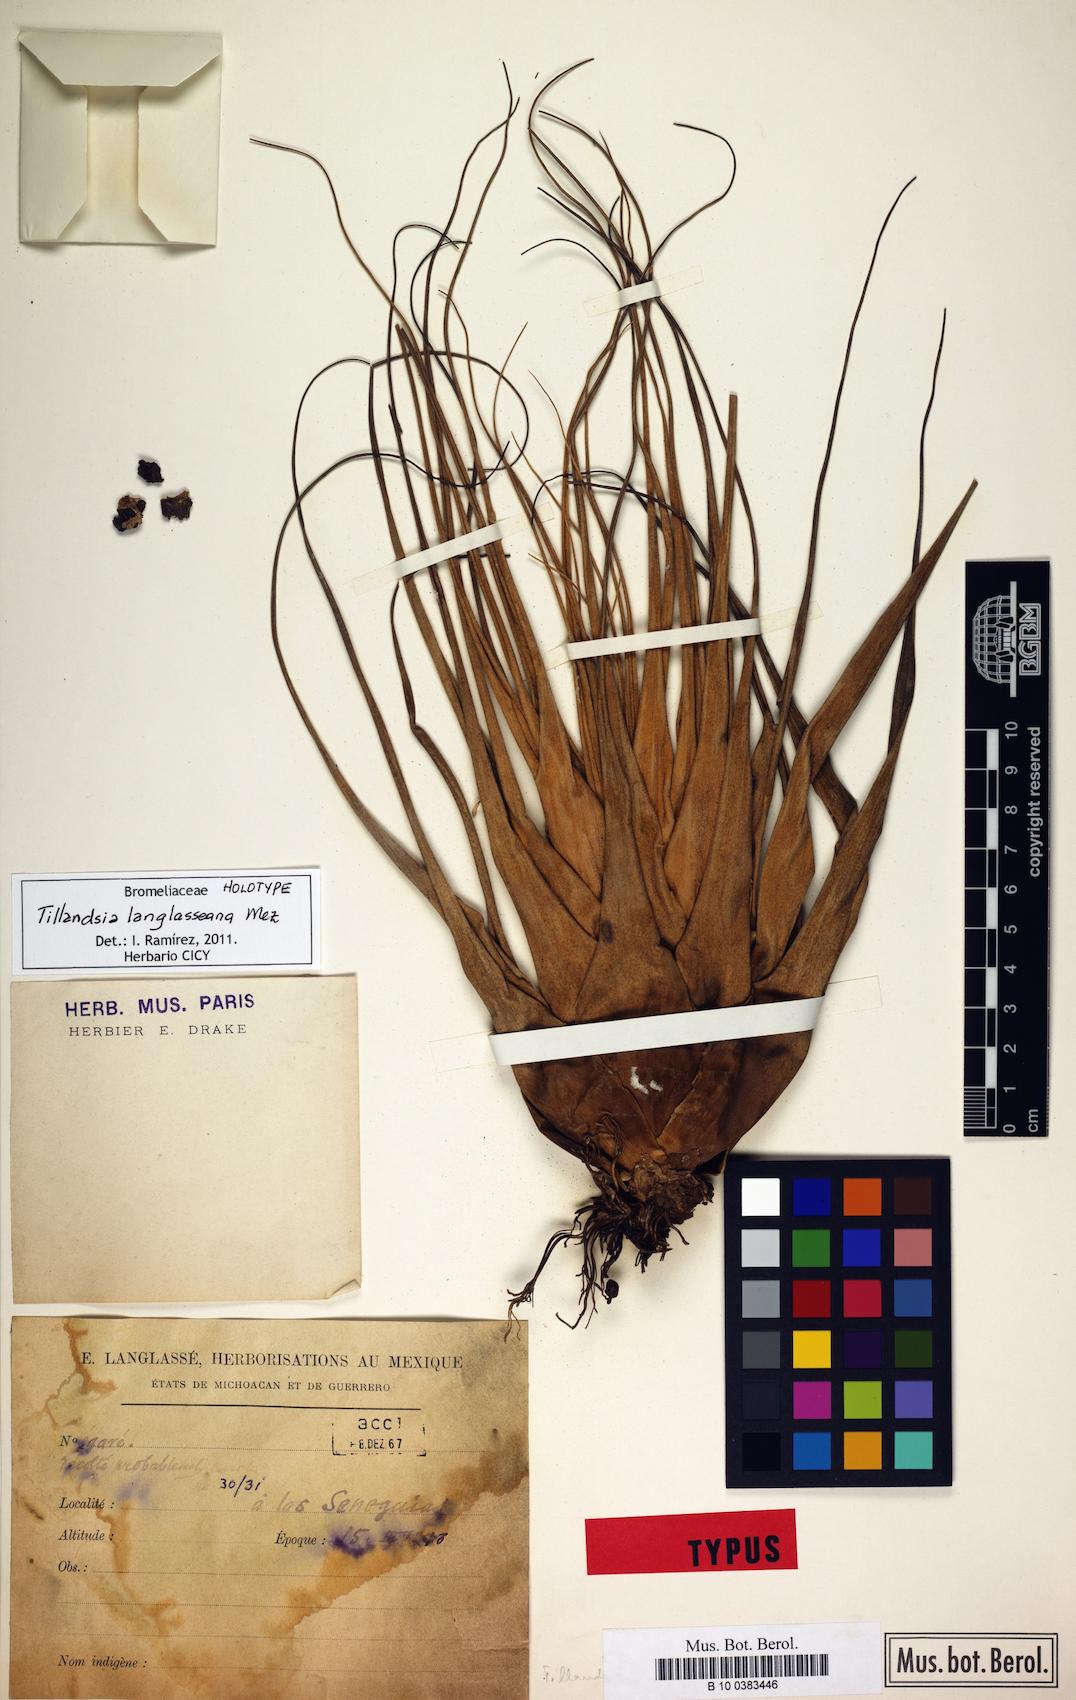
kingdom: Plantae
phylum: Tracheophyta
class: Liliopsida
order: Poales
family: Bromeliaceae
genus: Tillandsia
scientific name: Tillandsia langlasseana
